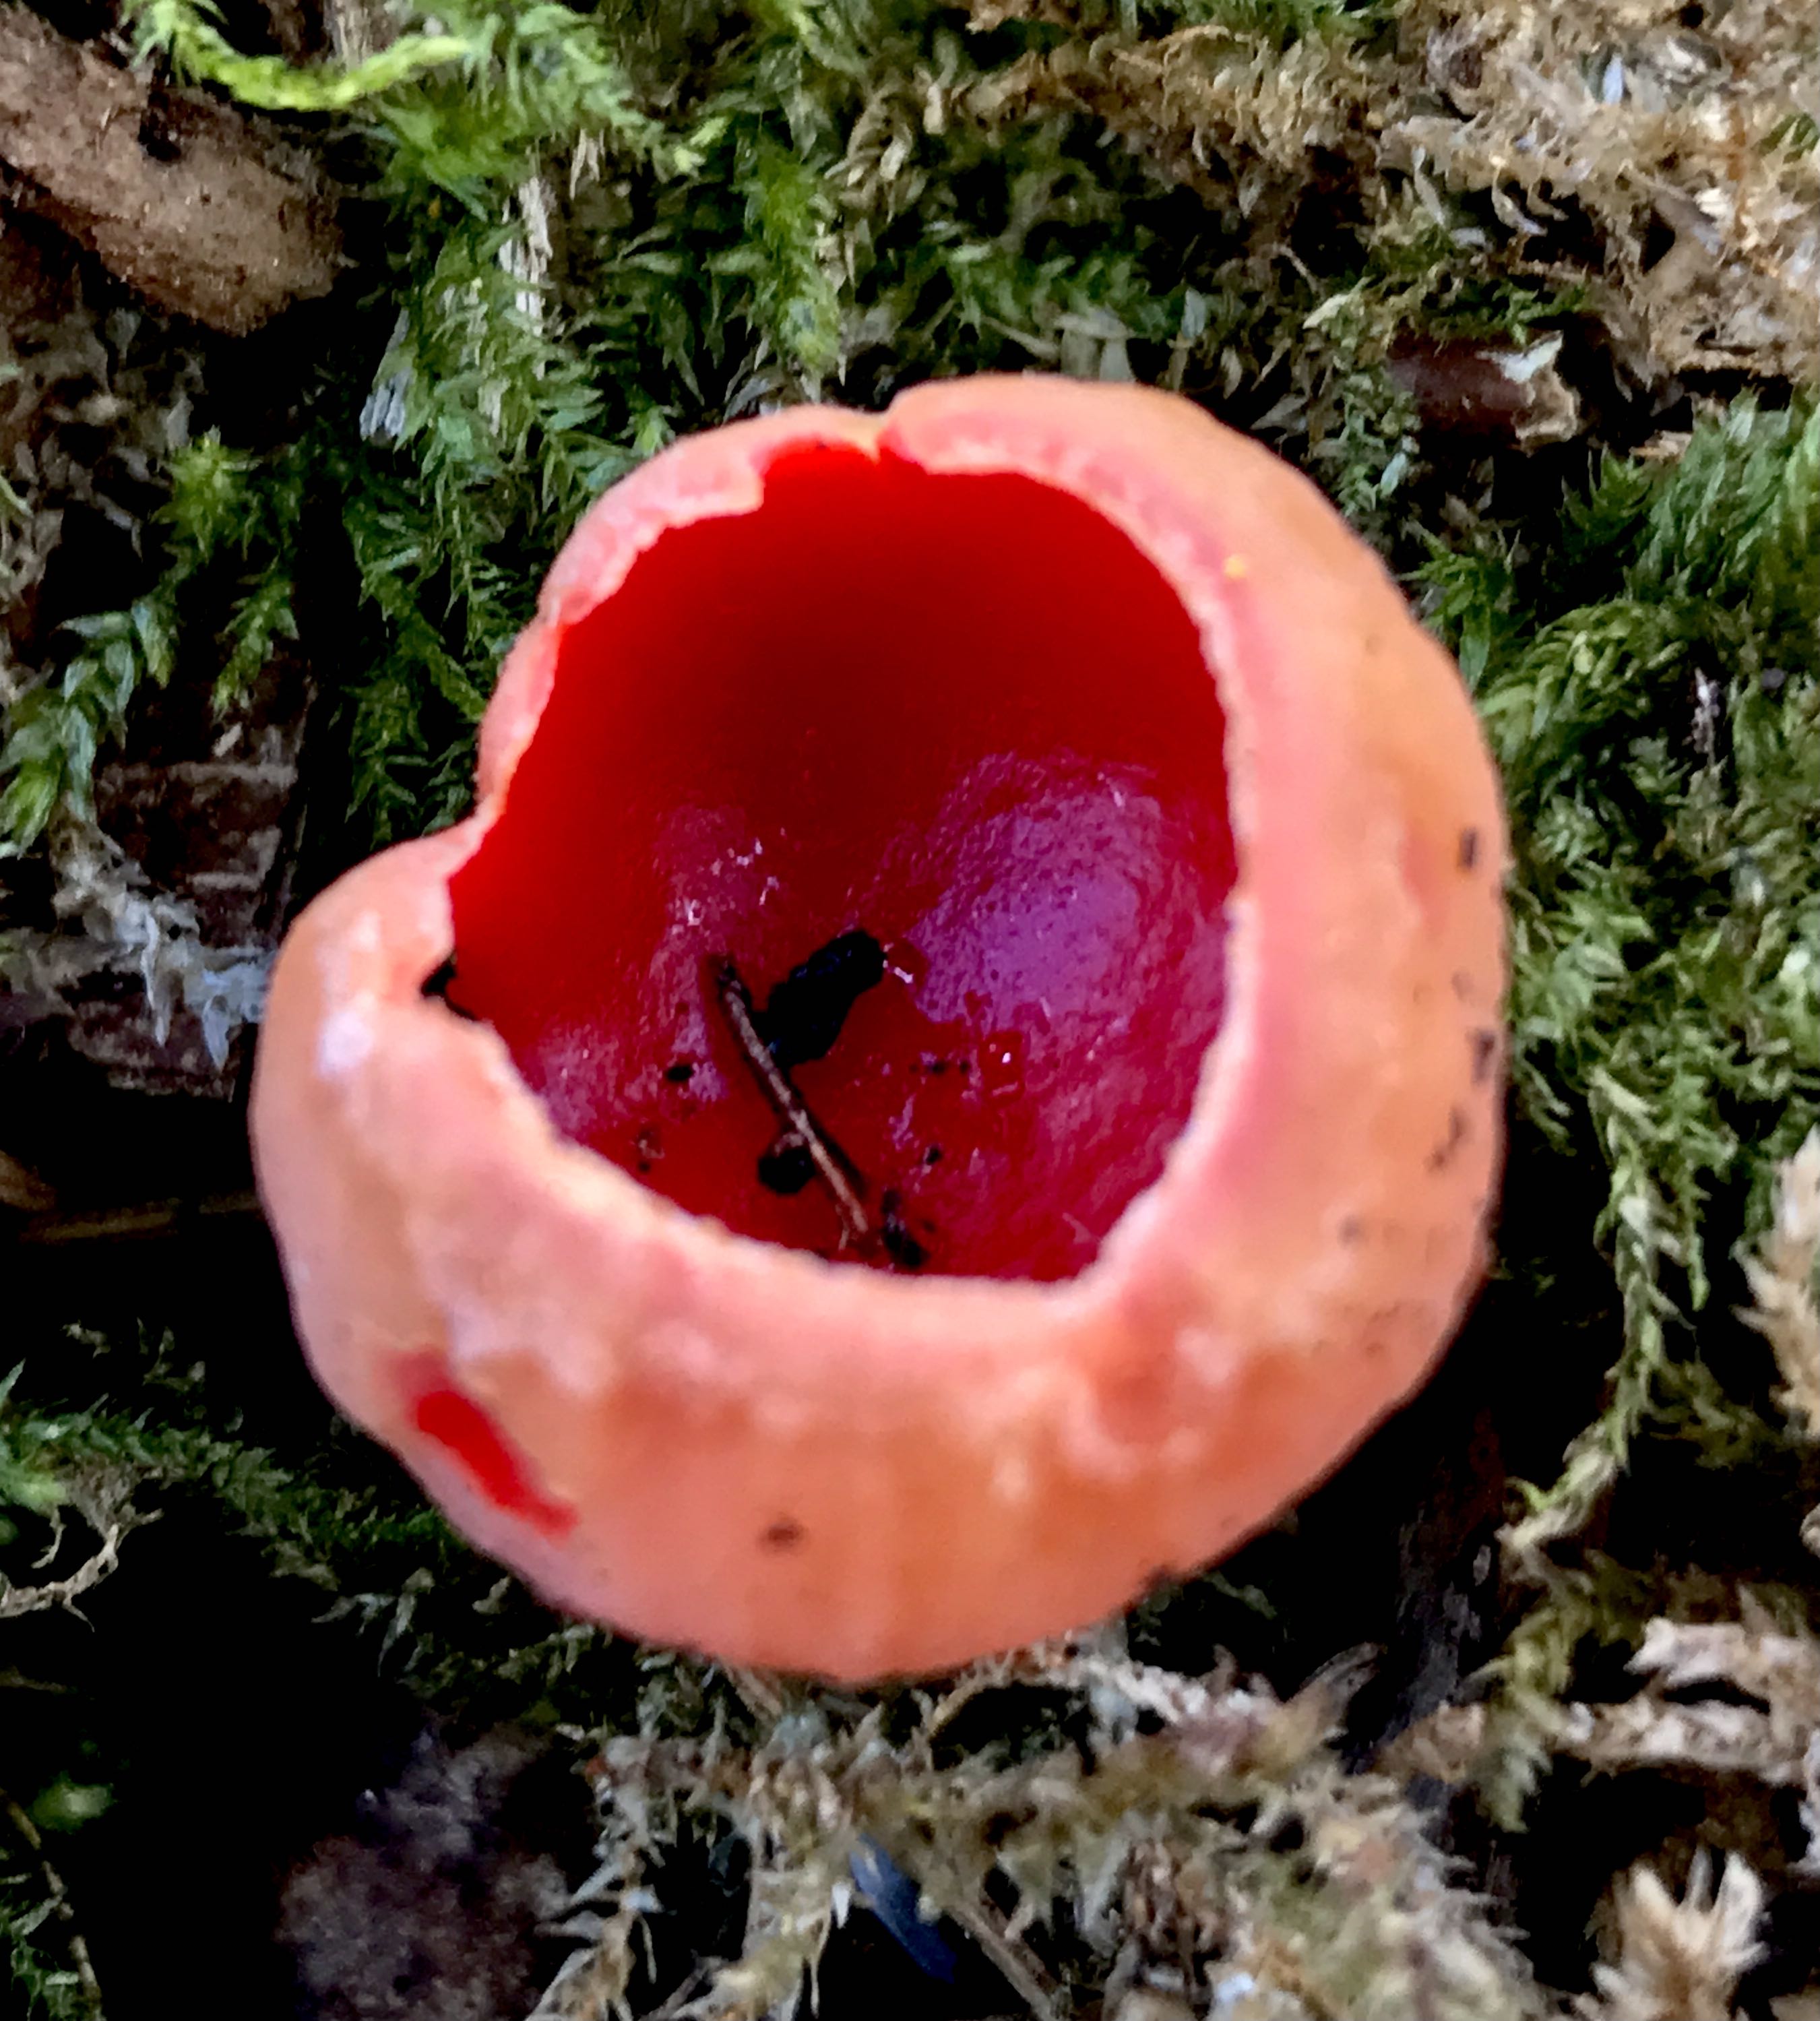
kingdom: Fungi
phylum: Ascomycota
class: Pezizomycetes
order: Pezizales
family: Sarcoscyphaceae
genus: Sarcoscypha
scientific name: Sarcoscypha austriaca
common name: krølhåret pragtbæger
